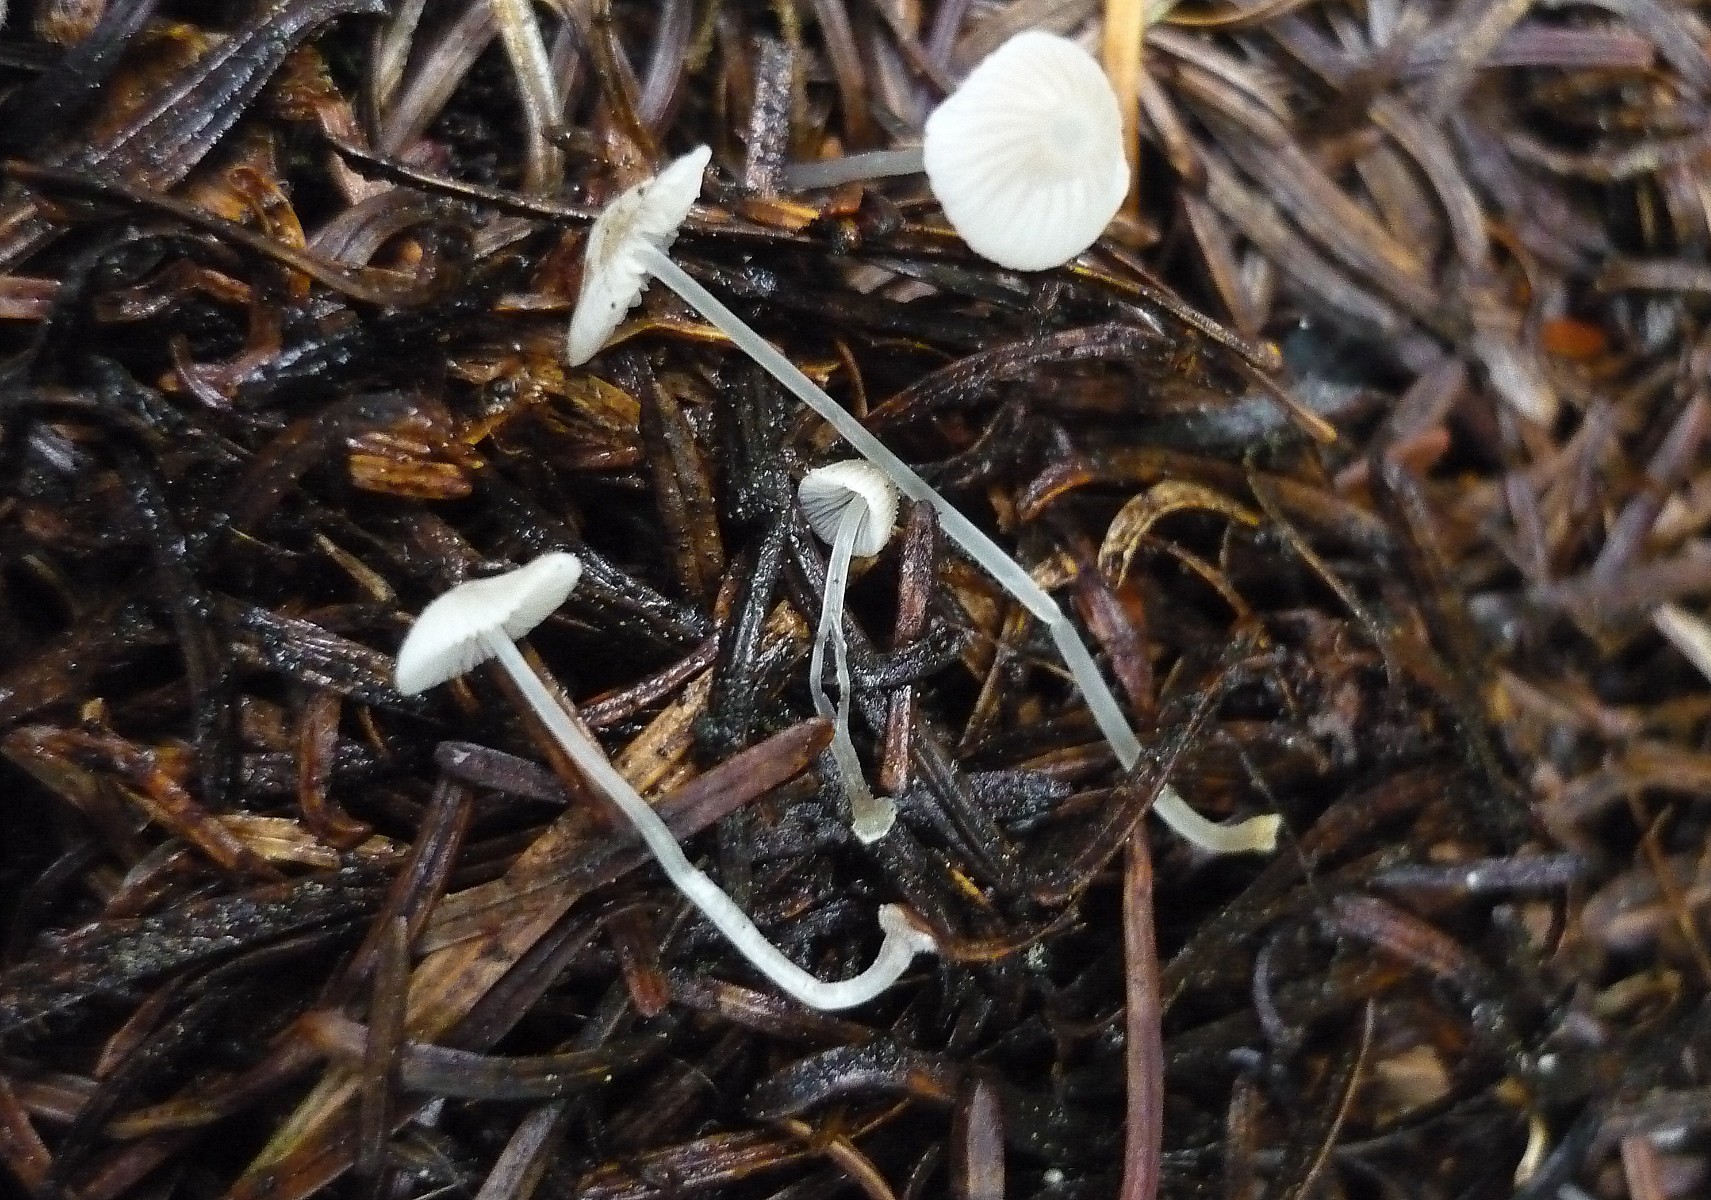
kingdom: Fungi
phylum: Basidiomycota
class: Agaricomycetes
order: Agaricales
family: Mycenaceae
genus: Mycena
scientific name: Mycena stylobates
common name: fureskivet huesvamp
